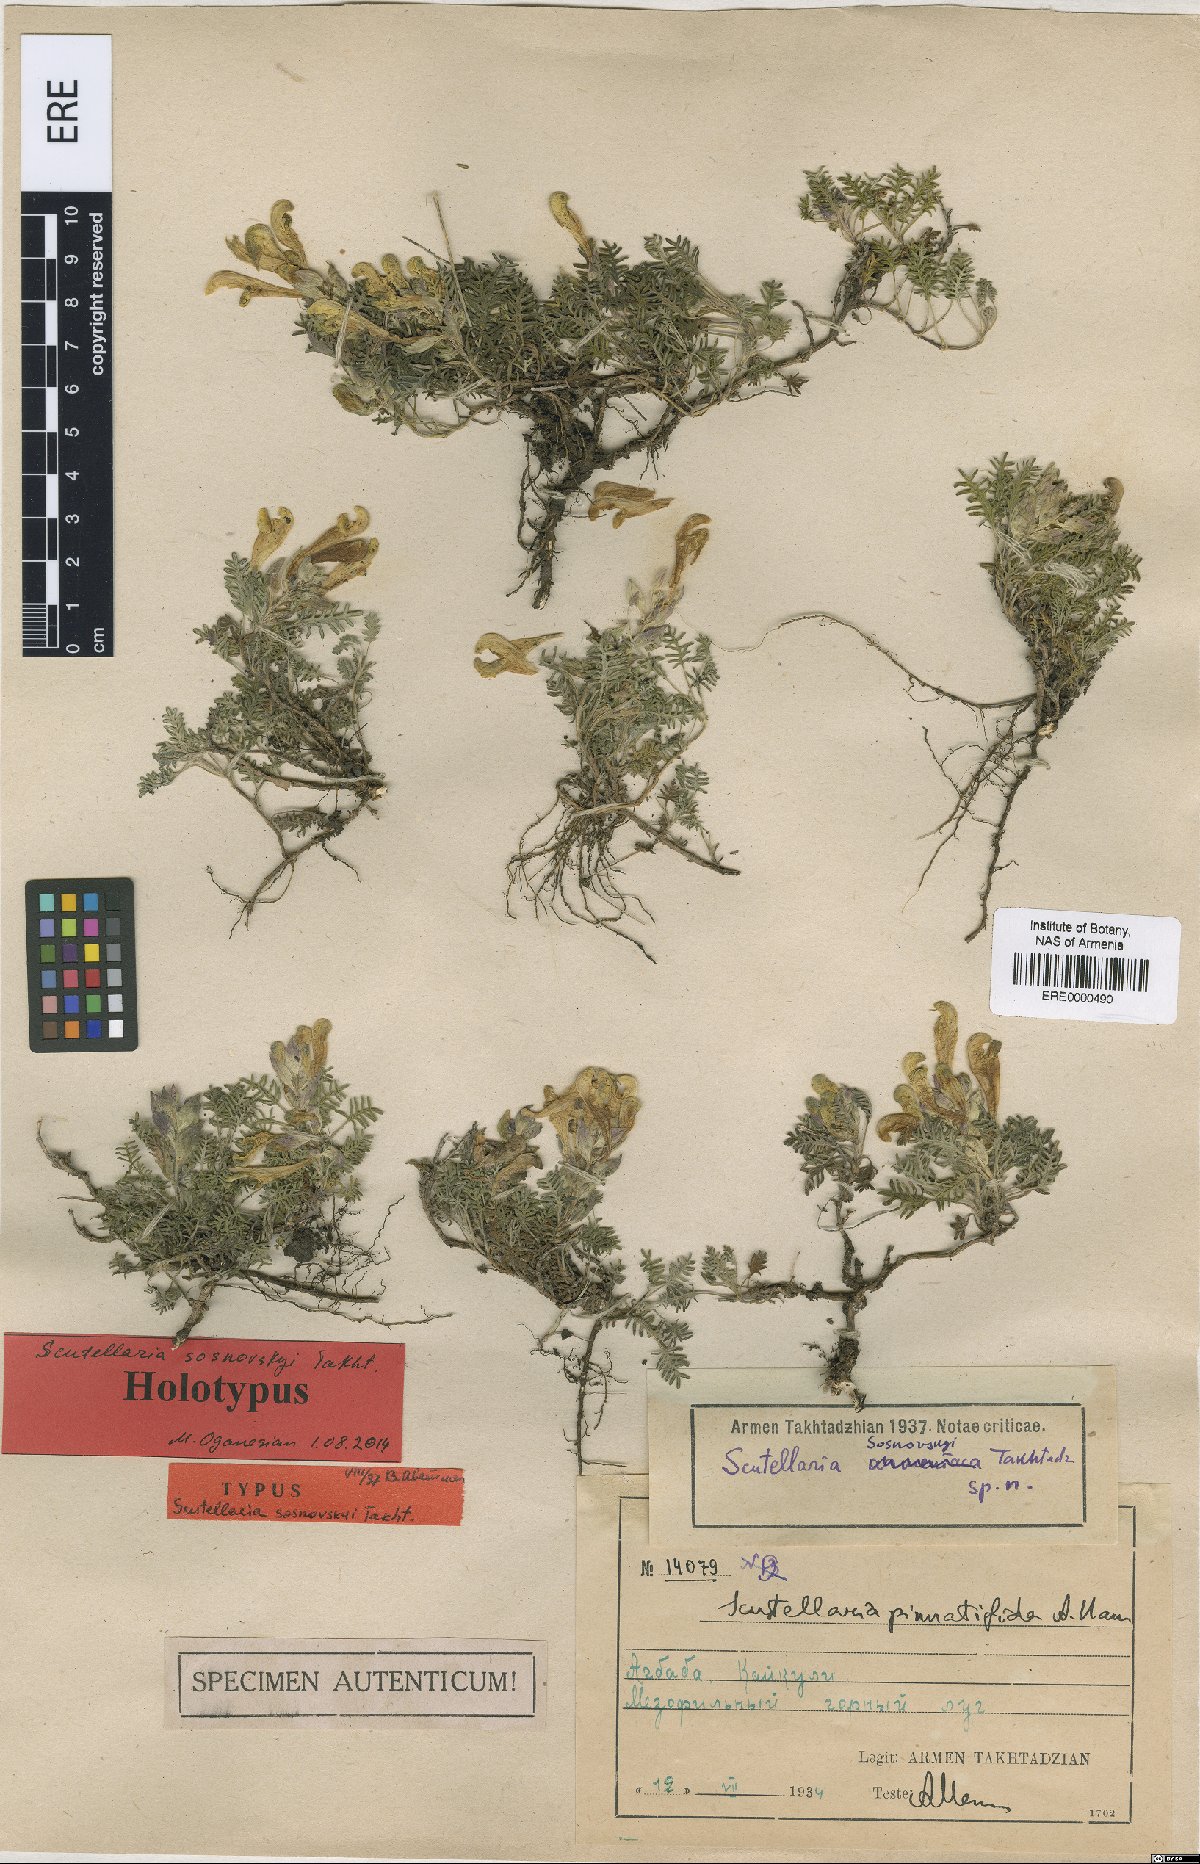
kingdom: Plantae
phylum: Tracheophyta
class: Magnoliopsida
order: Lamiales
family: Lamiaceae
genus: Scutellaria
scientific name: Scutellaria sosnowskyi
